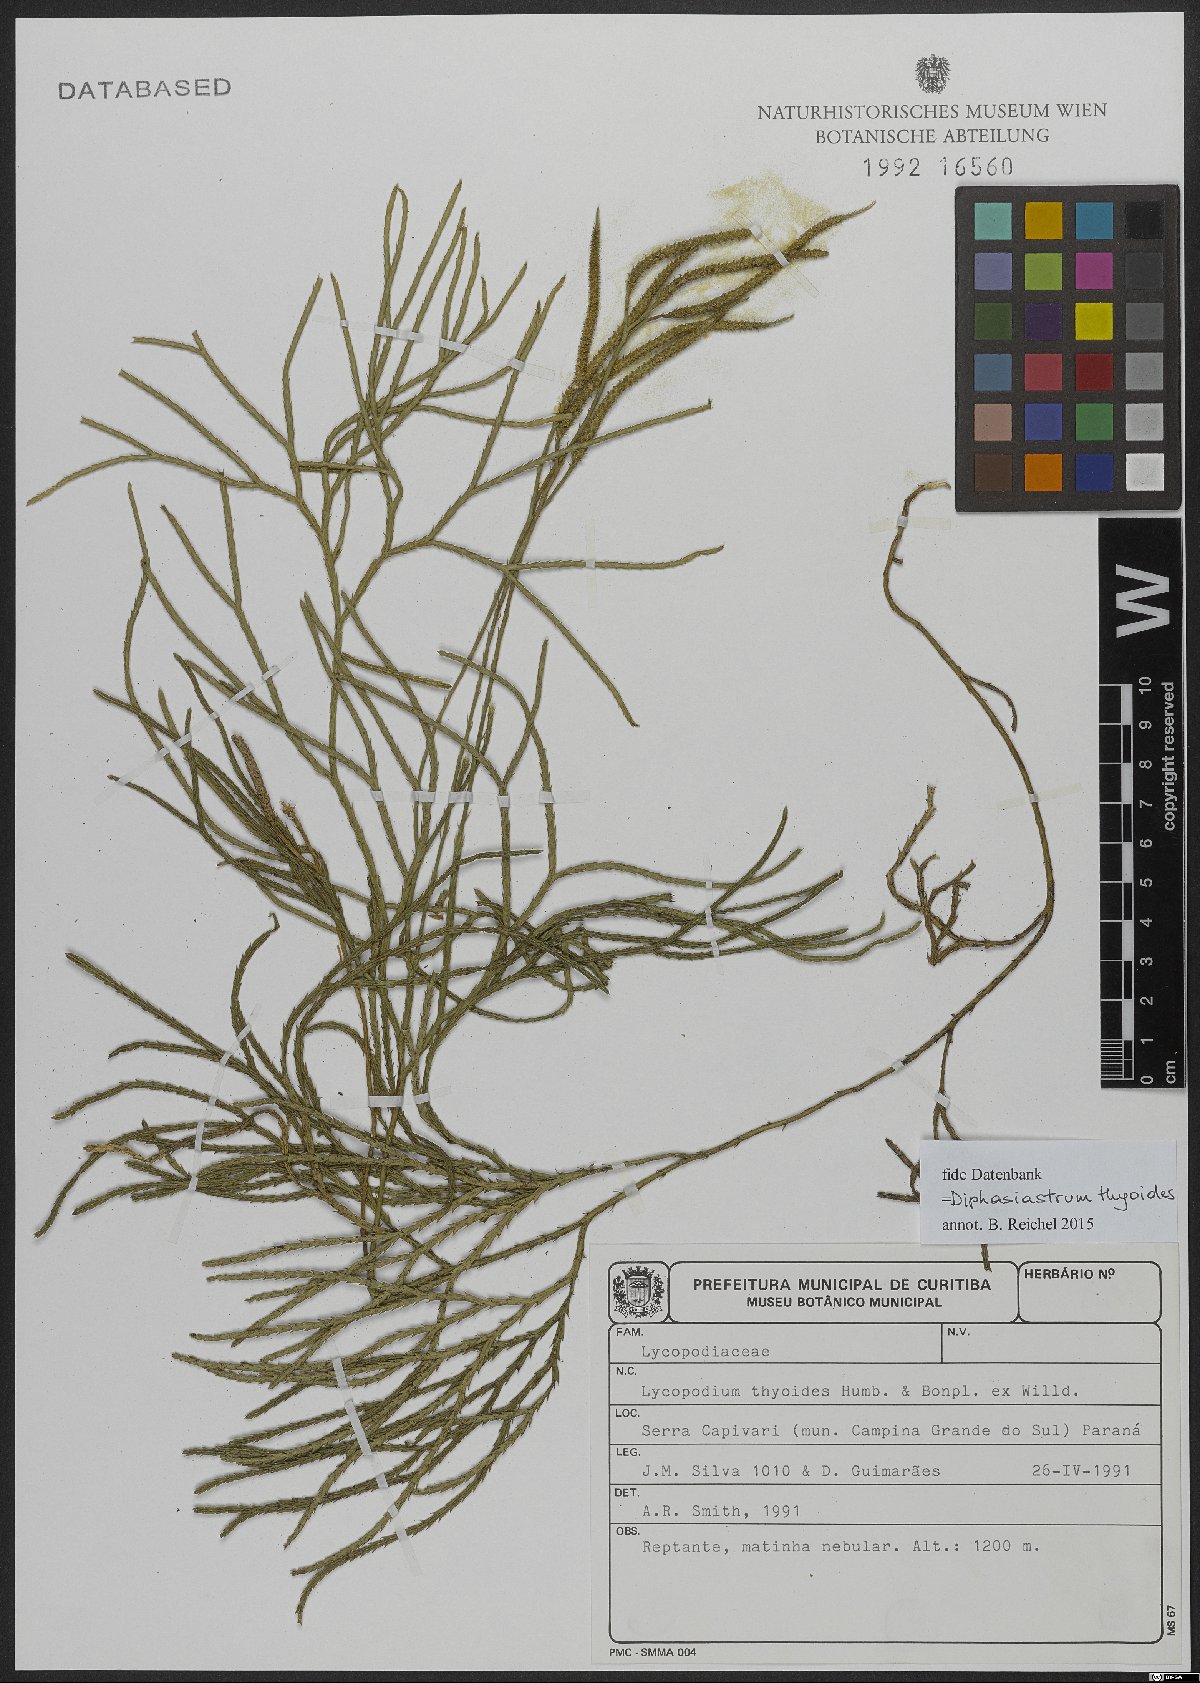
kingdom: Plantae
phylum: Tracheophyta
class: Lycopodiopsida
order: Lycopodiales
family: Lycopodiaceae
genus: Diphasiastrum
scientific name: Diphasiastrum thyoides
